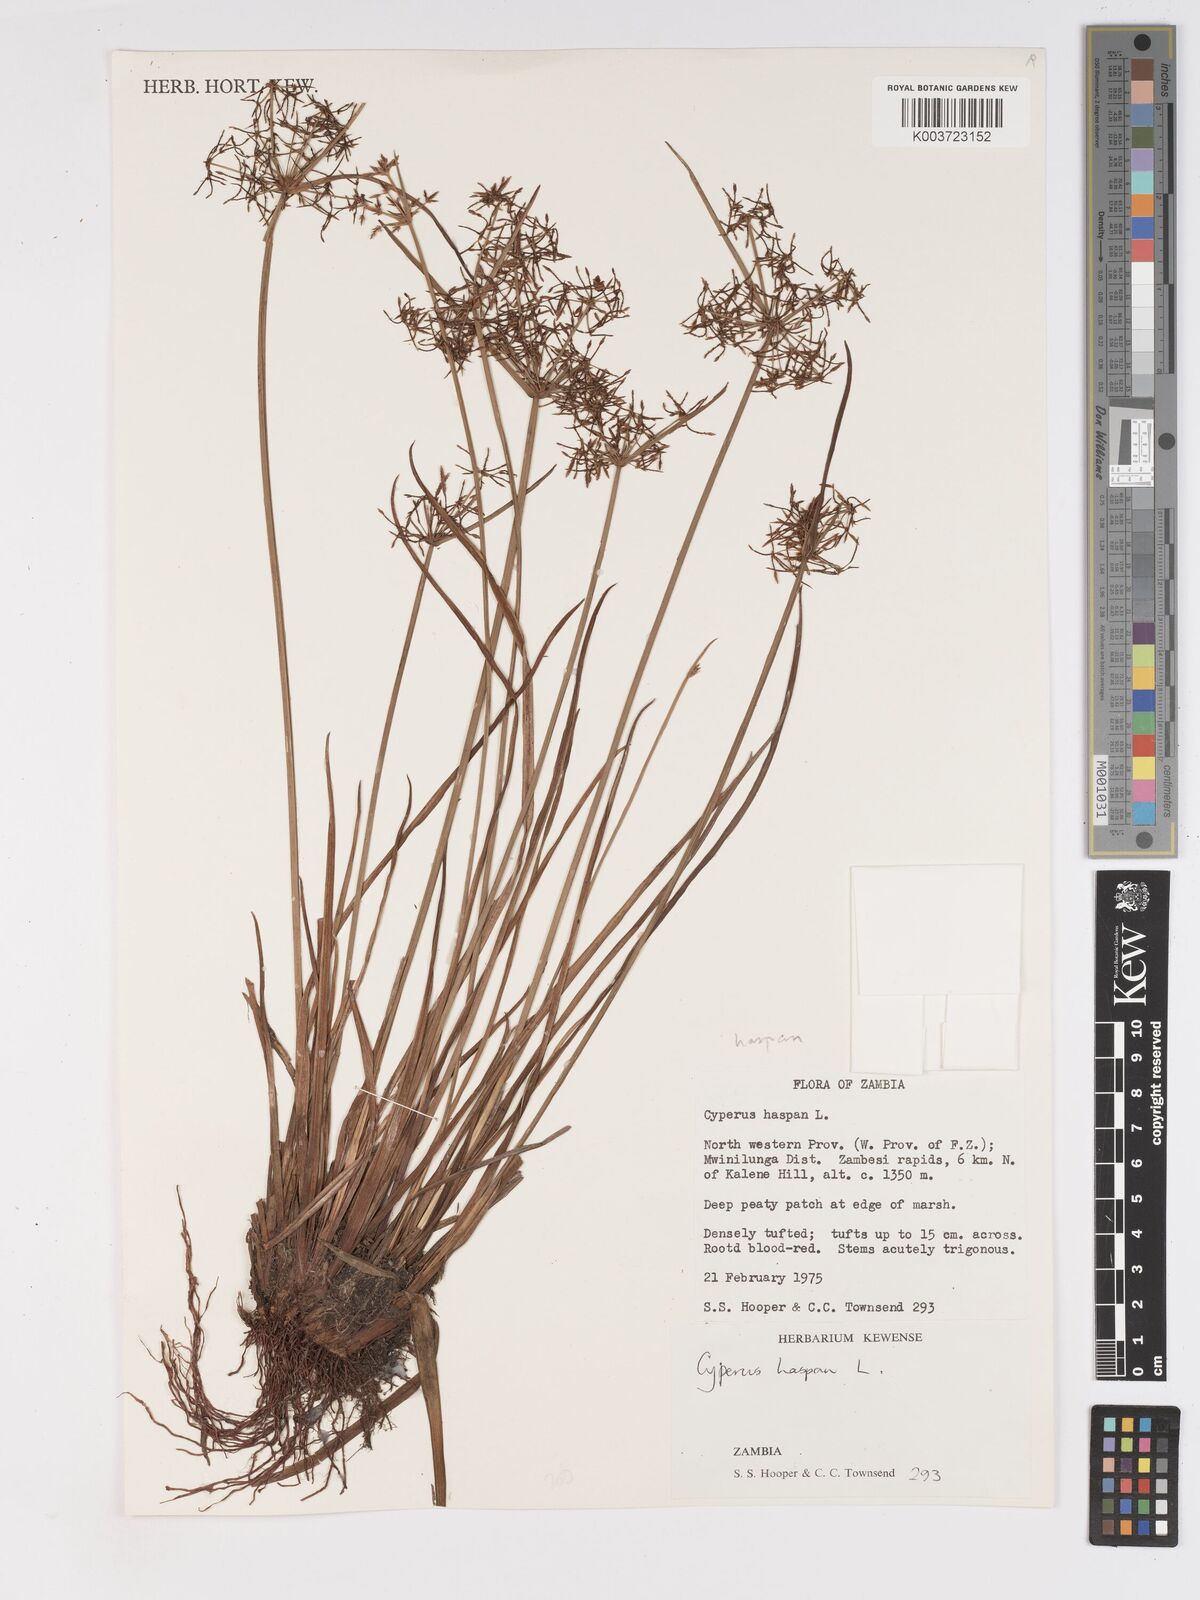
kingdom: Plantae
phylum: Tracheophyta
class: Liliopsida
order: Poales
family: Cyperaceae
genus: Cyperus
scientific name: Cyperus haspan
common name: Haspan flatsedge
